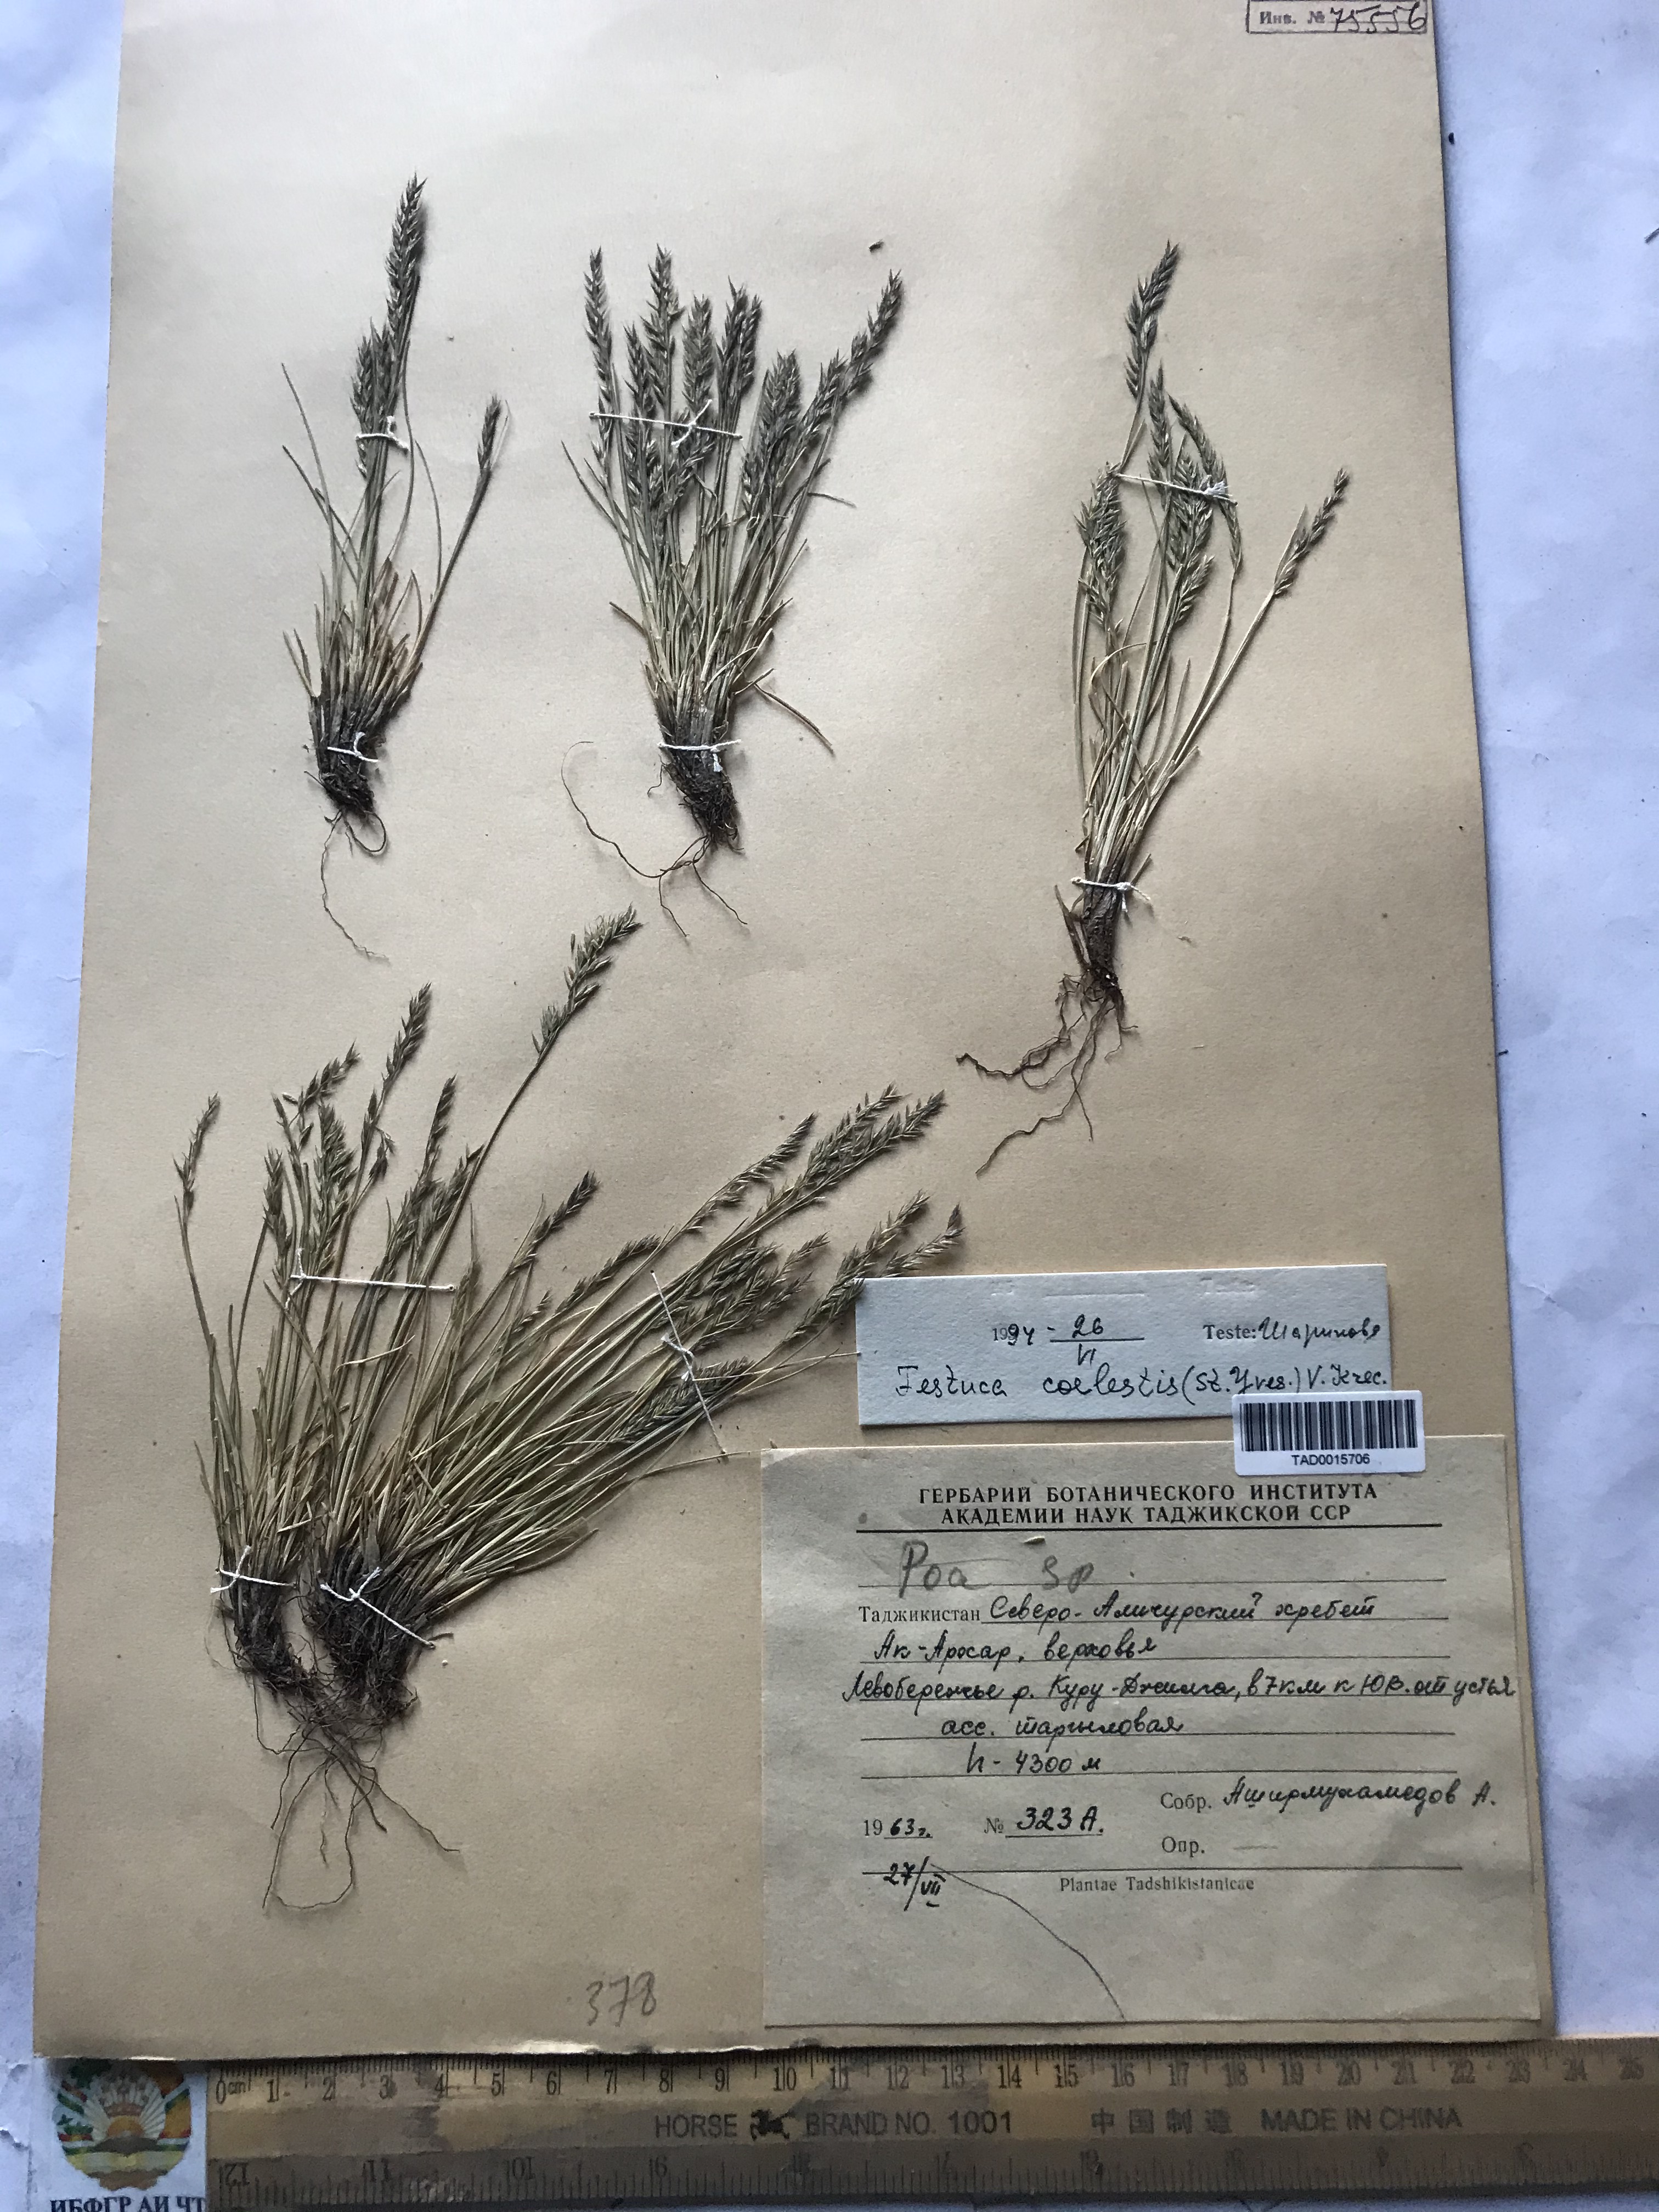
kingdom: Plantae
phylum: Tracheophyta
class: Liliopsida
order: Poales
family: Poaceae
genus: Festuca
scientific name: Festuca coelestis
